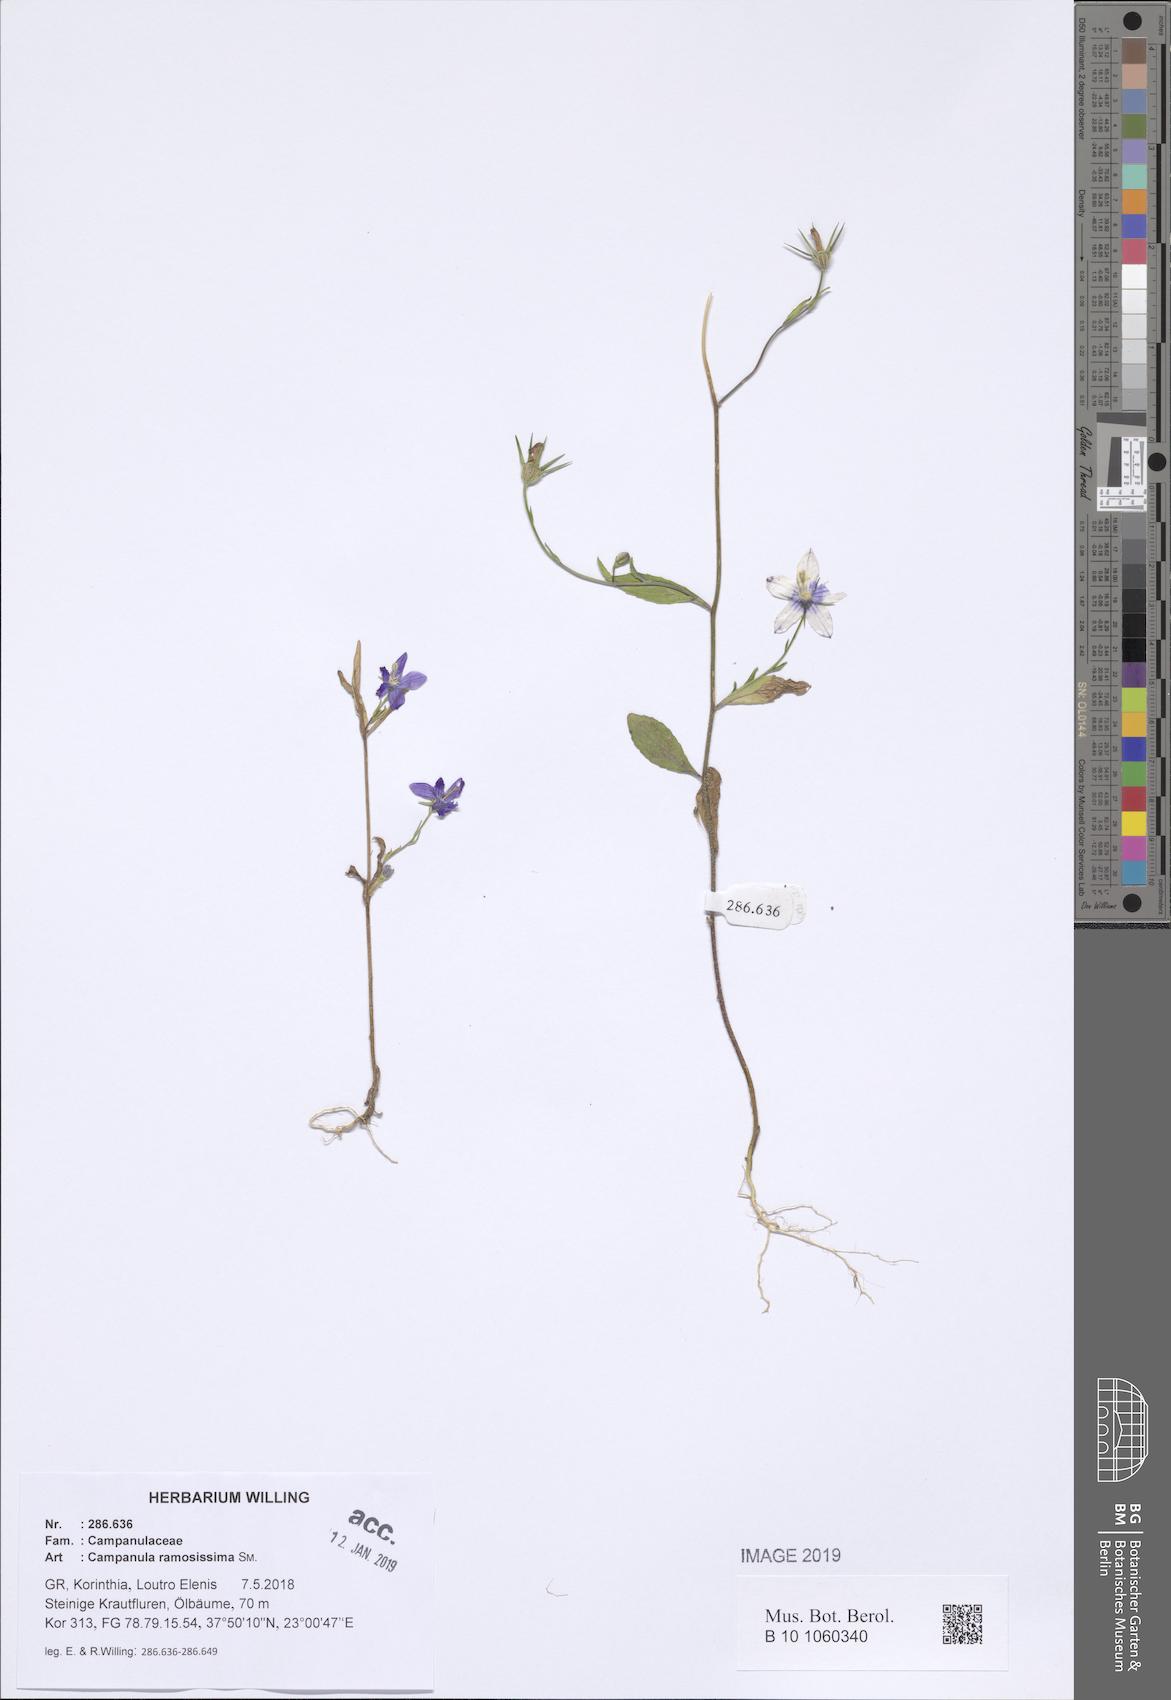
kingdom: Plantae
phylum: Tracheophyta
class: Magnoliopsida
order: Asterales
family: Campanulaceae
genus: Campanula
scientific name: Campanula ramosissima
